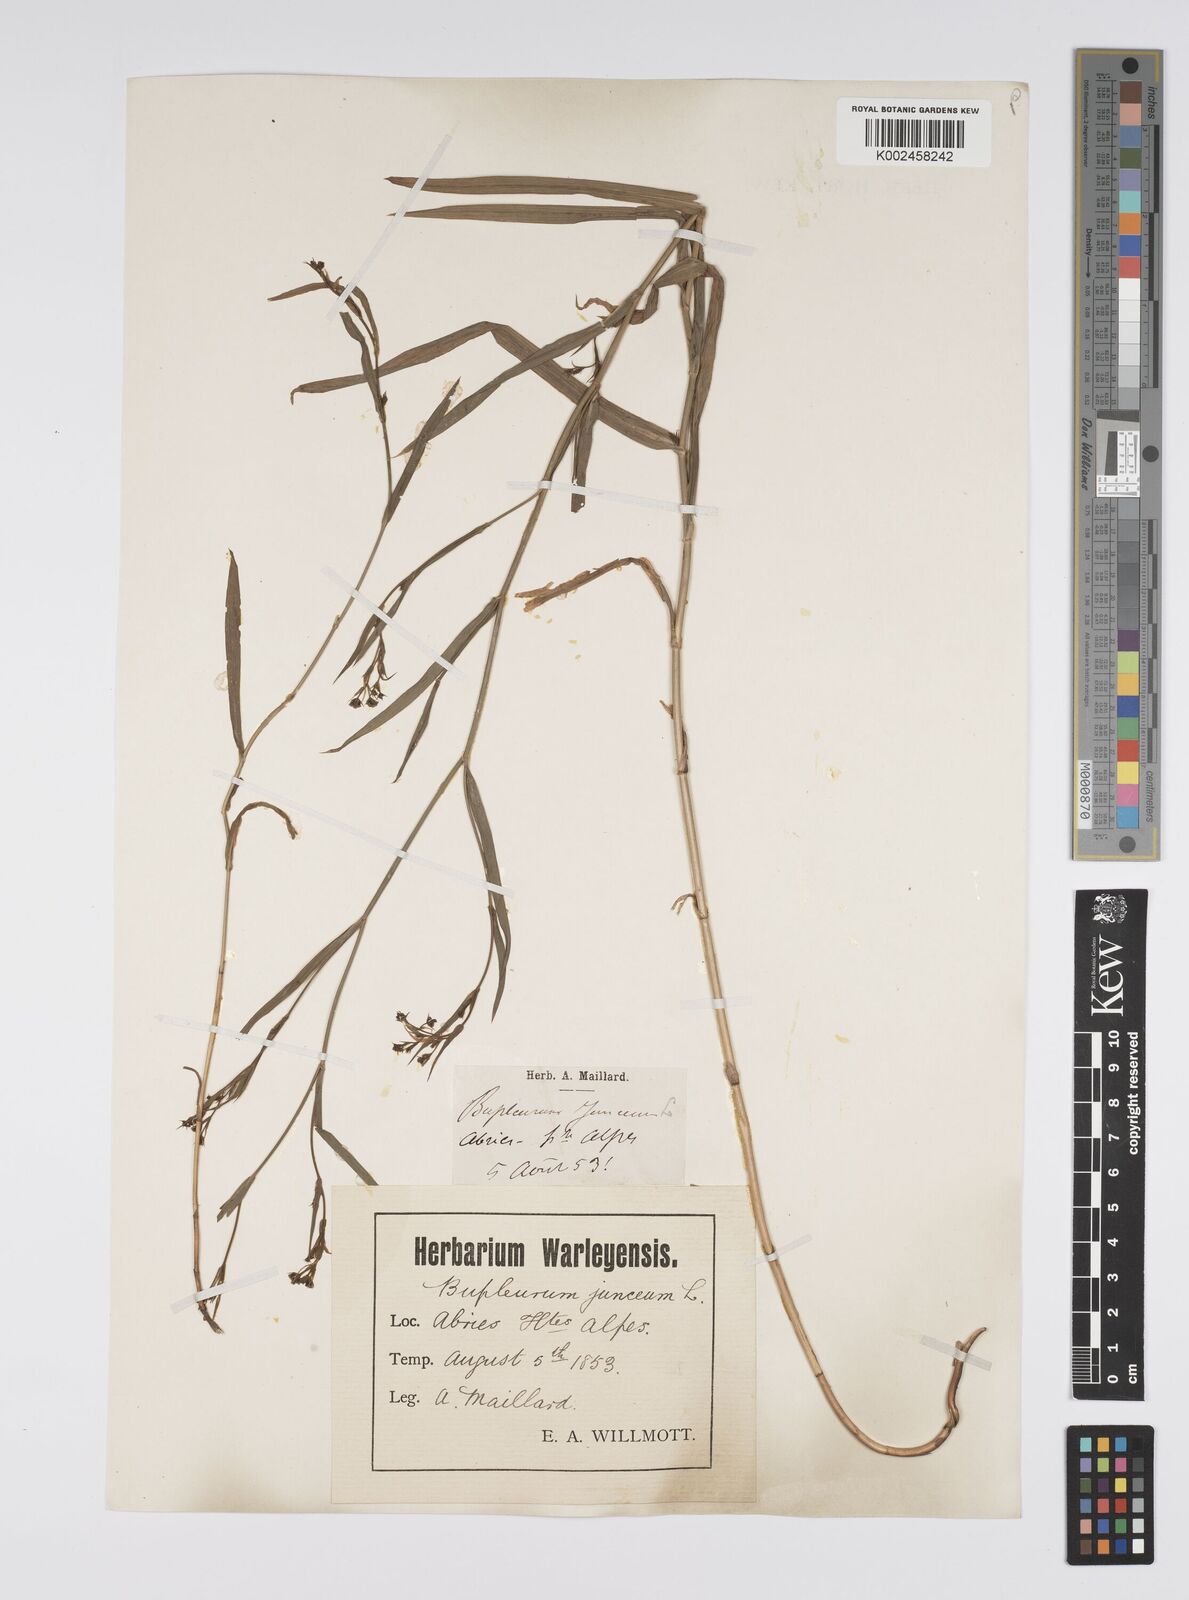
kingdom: Plantae
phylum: Tracheophyta
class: Magnoliopsida
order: Apiales
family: Apiaceae
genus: Bupleurum
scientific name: Bupleurum praealtum
